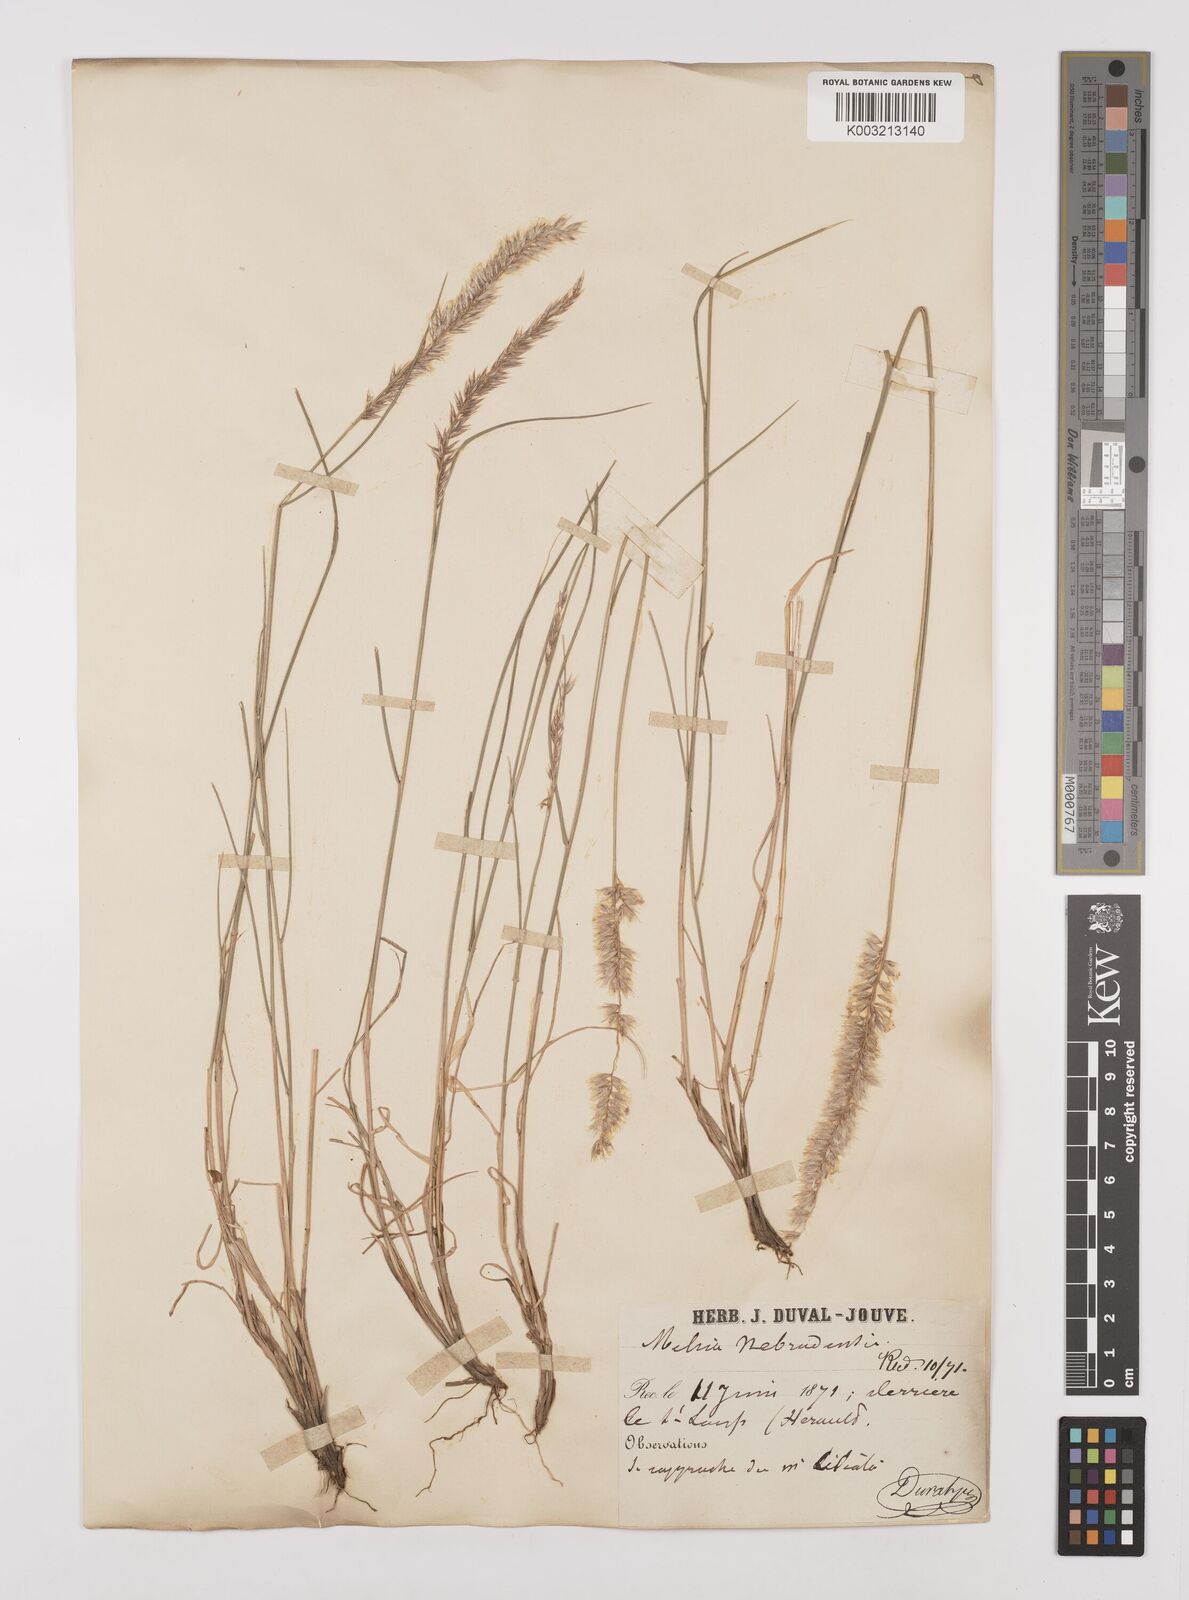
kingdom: Plantae
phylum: Tracheophyta
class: Liliopsida
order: Poales
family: Poaceae
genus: Melica
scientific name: Melica ciliata
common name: Hairy melicgrass
